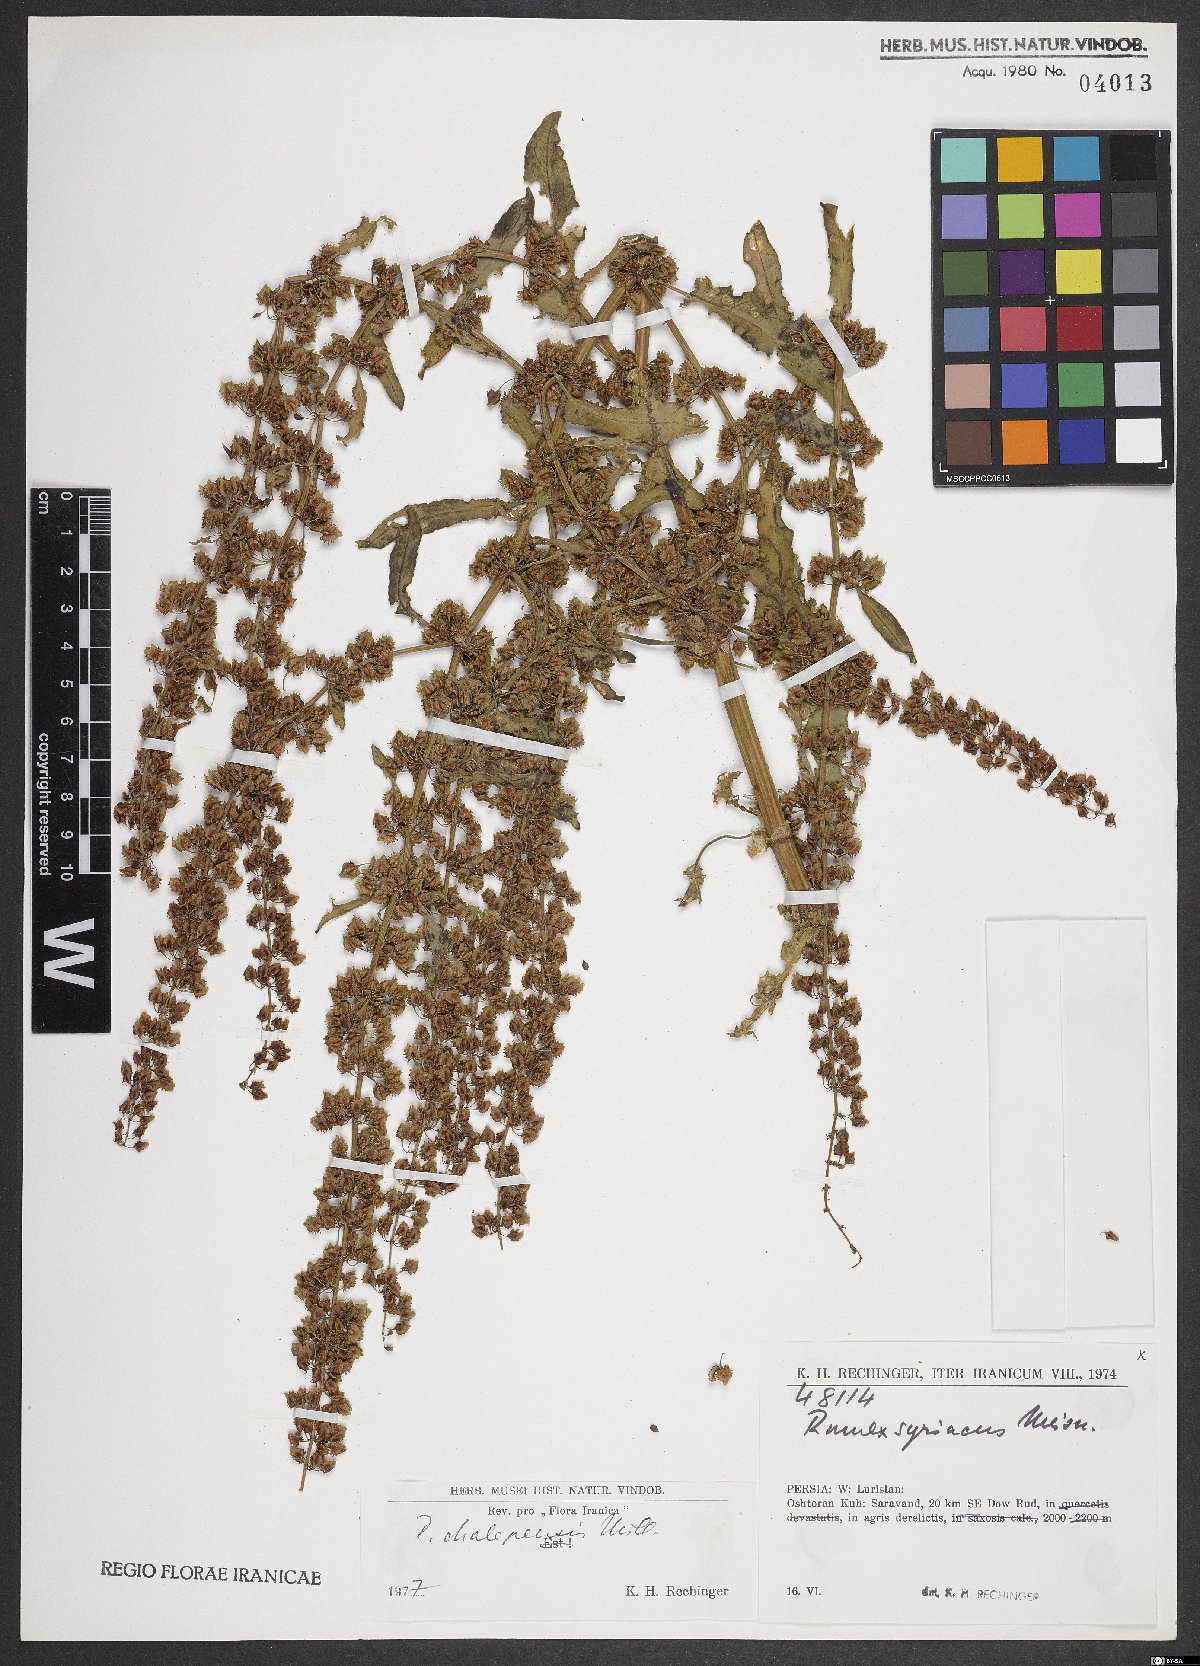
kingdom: Plantae
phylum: Tracheophyta
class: Magnoliopsida
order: Caryophyllales
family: Polygonaceae
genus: Rumex
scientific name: Rumex chalepensis
